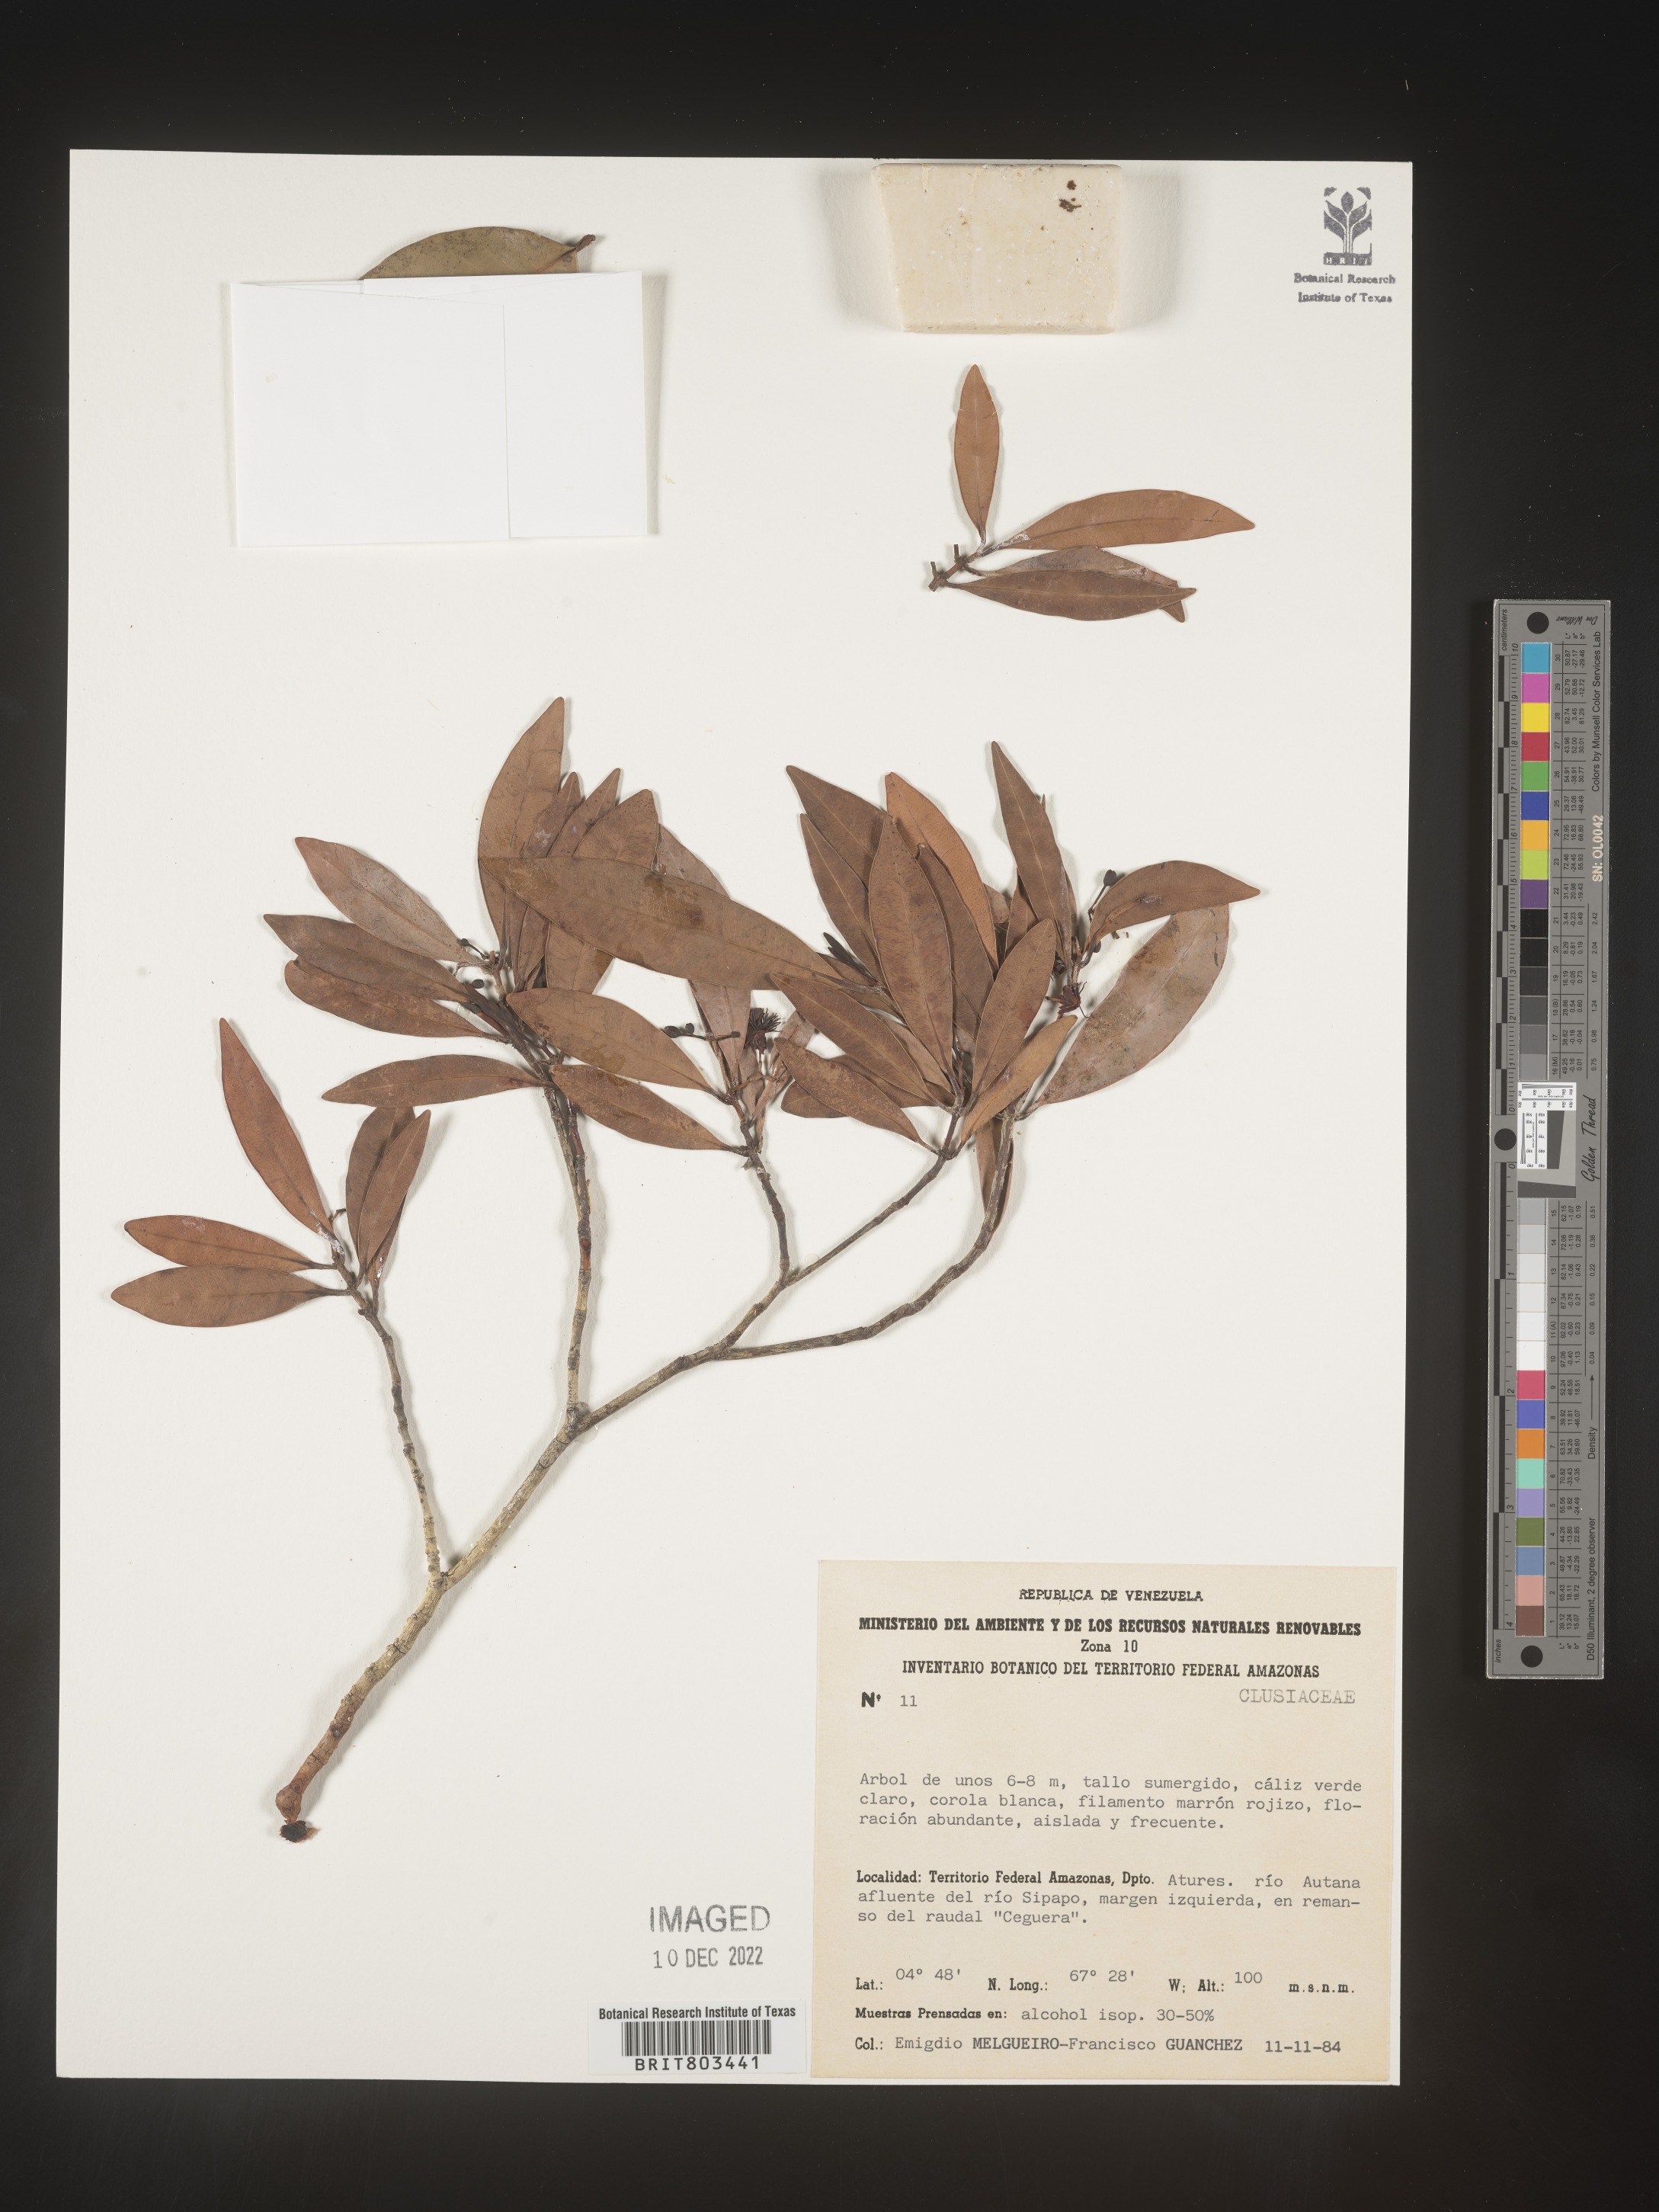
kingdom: Plantae
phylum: Tracheophyta
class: Magnoliopsida
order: Malpighiales
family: Clusiaceae
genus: Tovomita
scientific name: Tovomita
